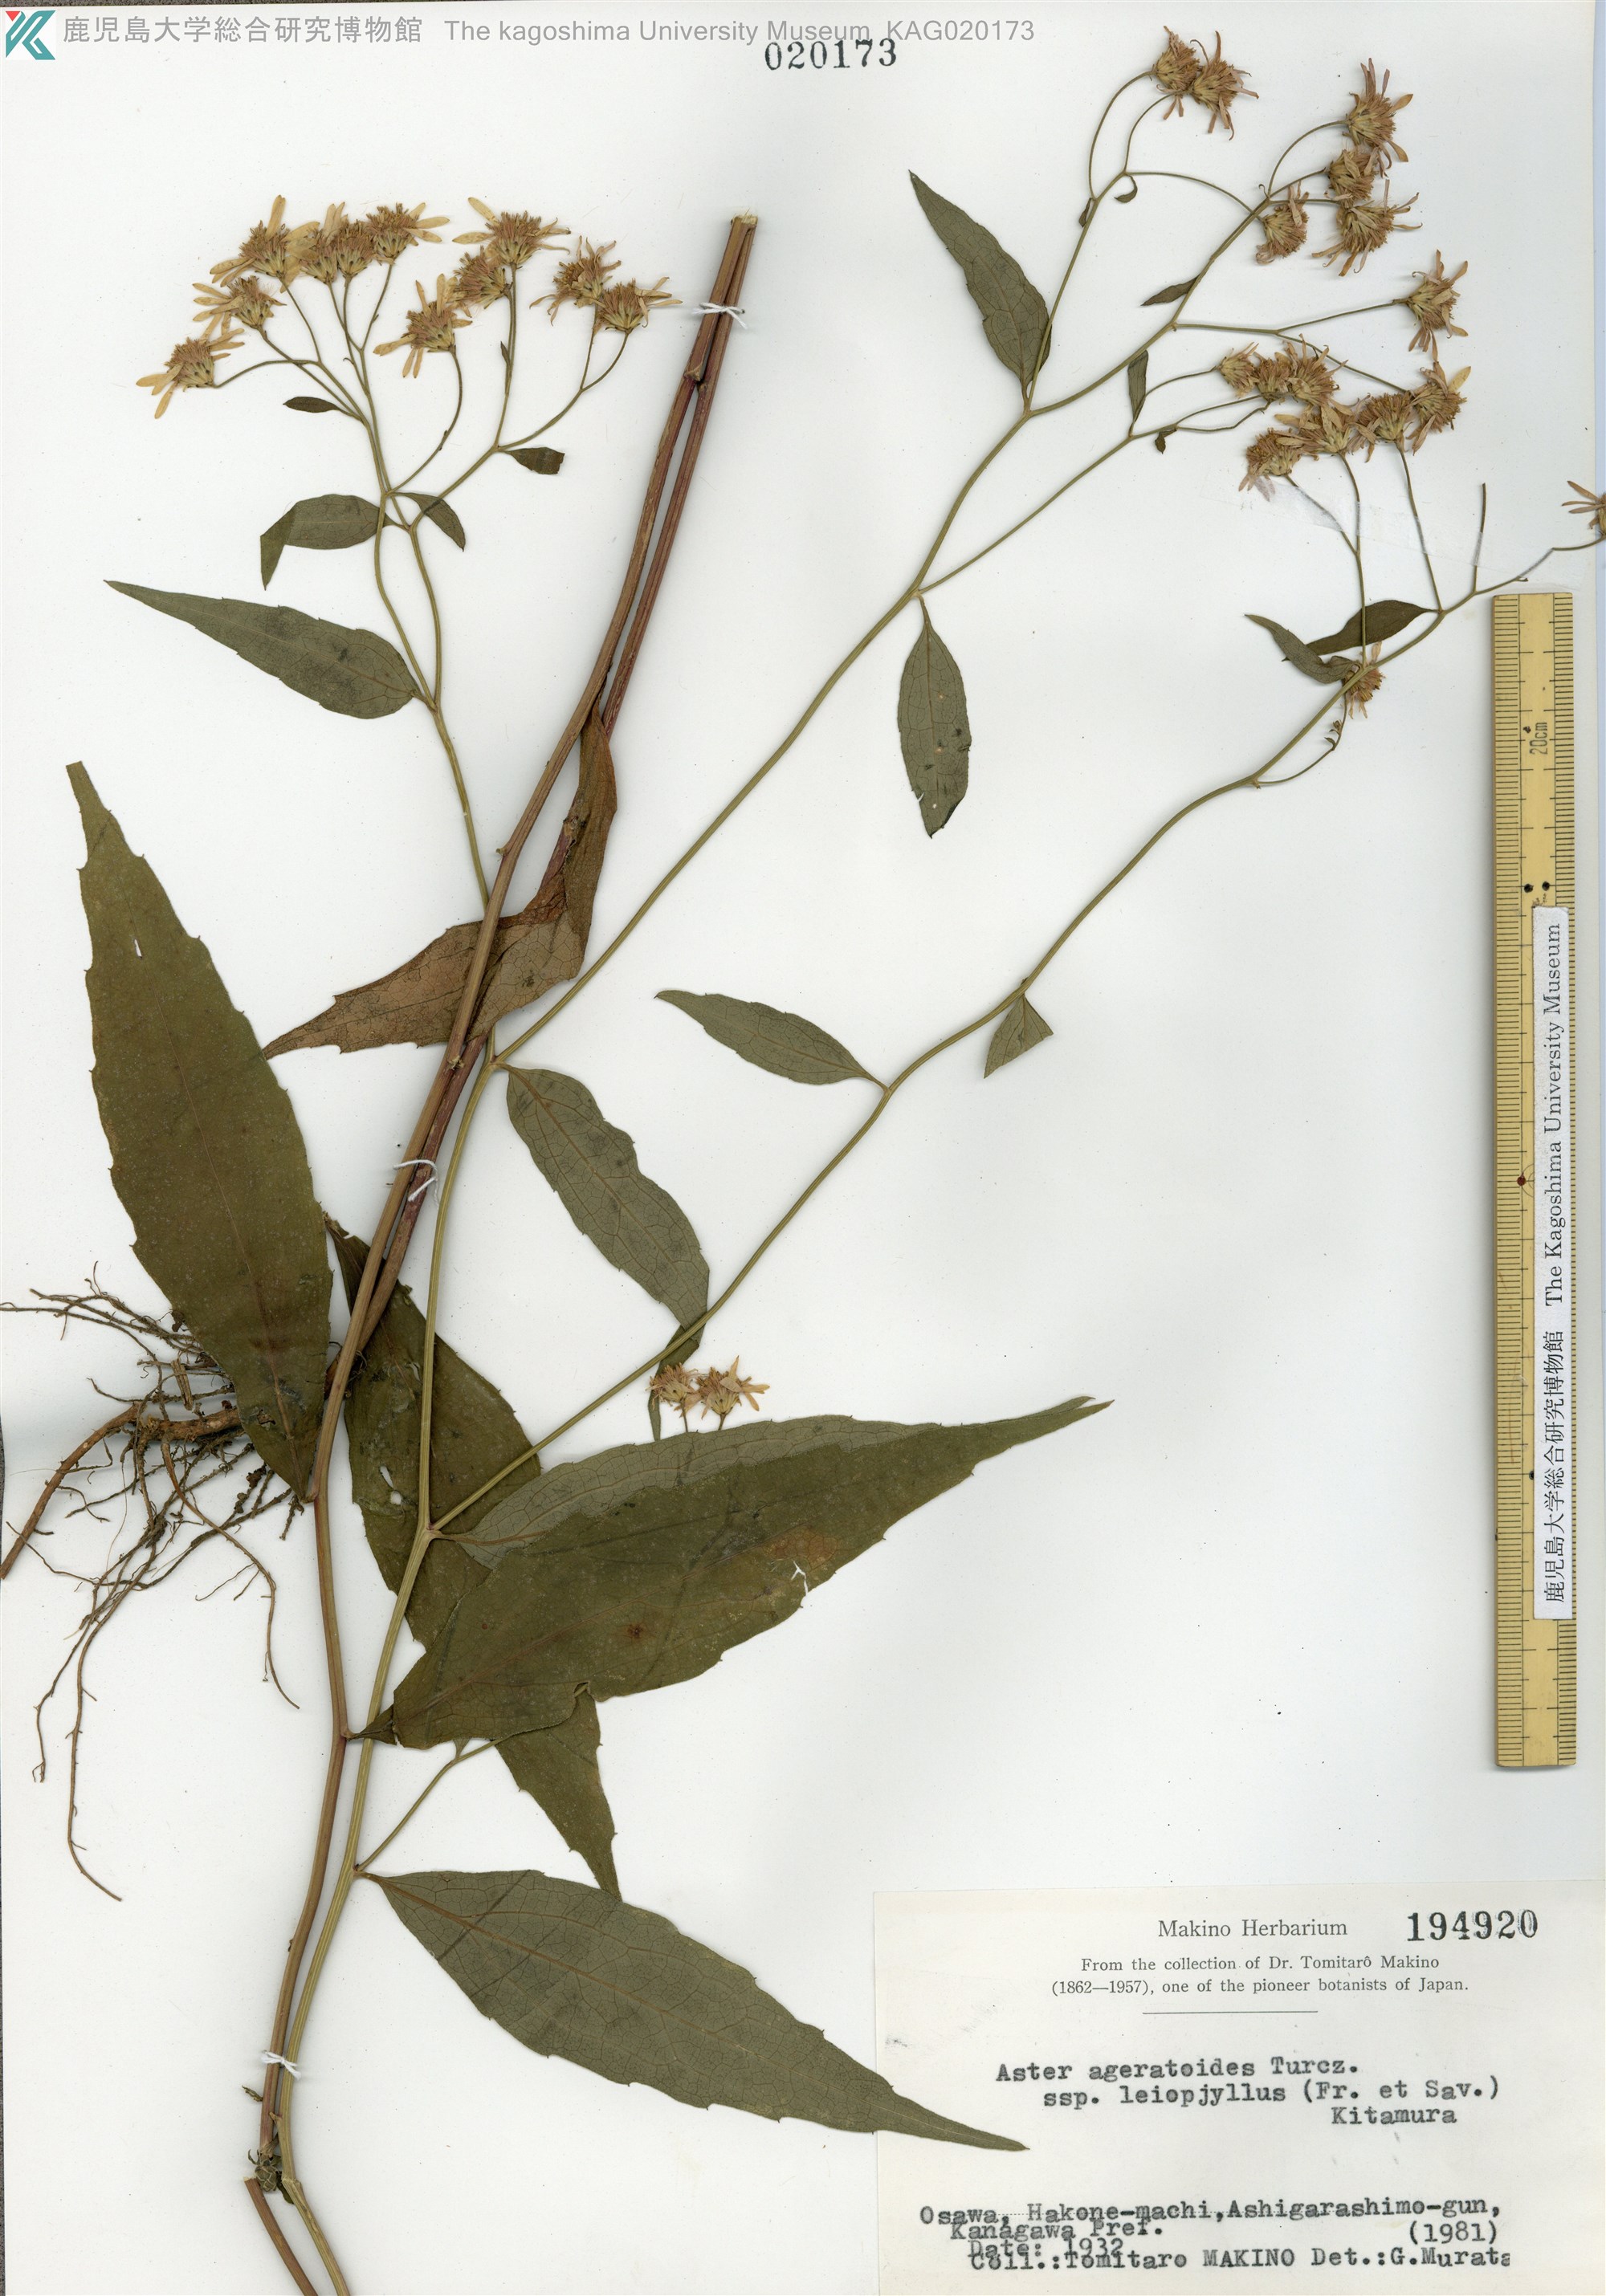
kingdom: Plantae
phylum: Tracheophyta
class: Magnoliopsida
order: Asterales
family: Asteraceae
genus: Aster
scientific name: Aster ageratoides
